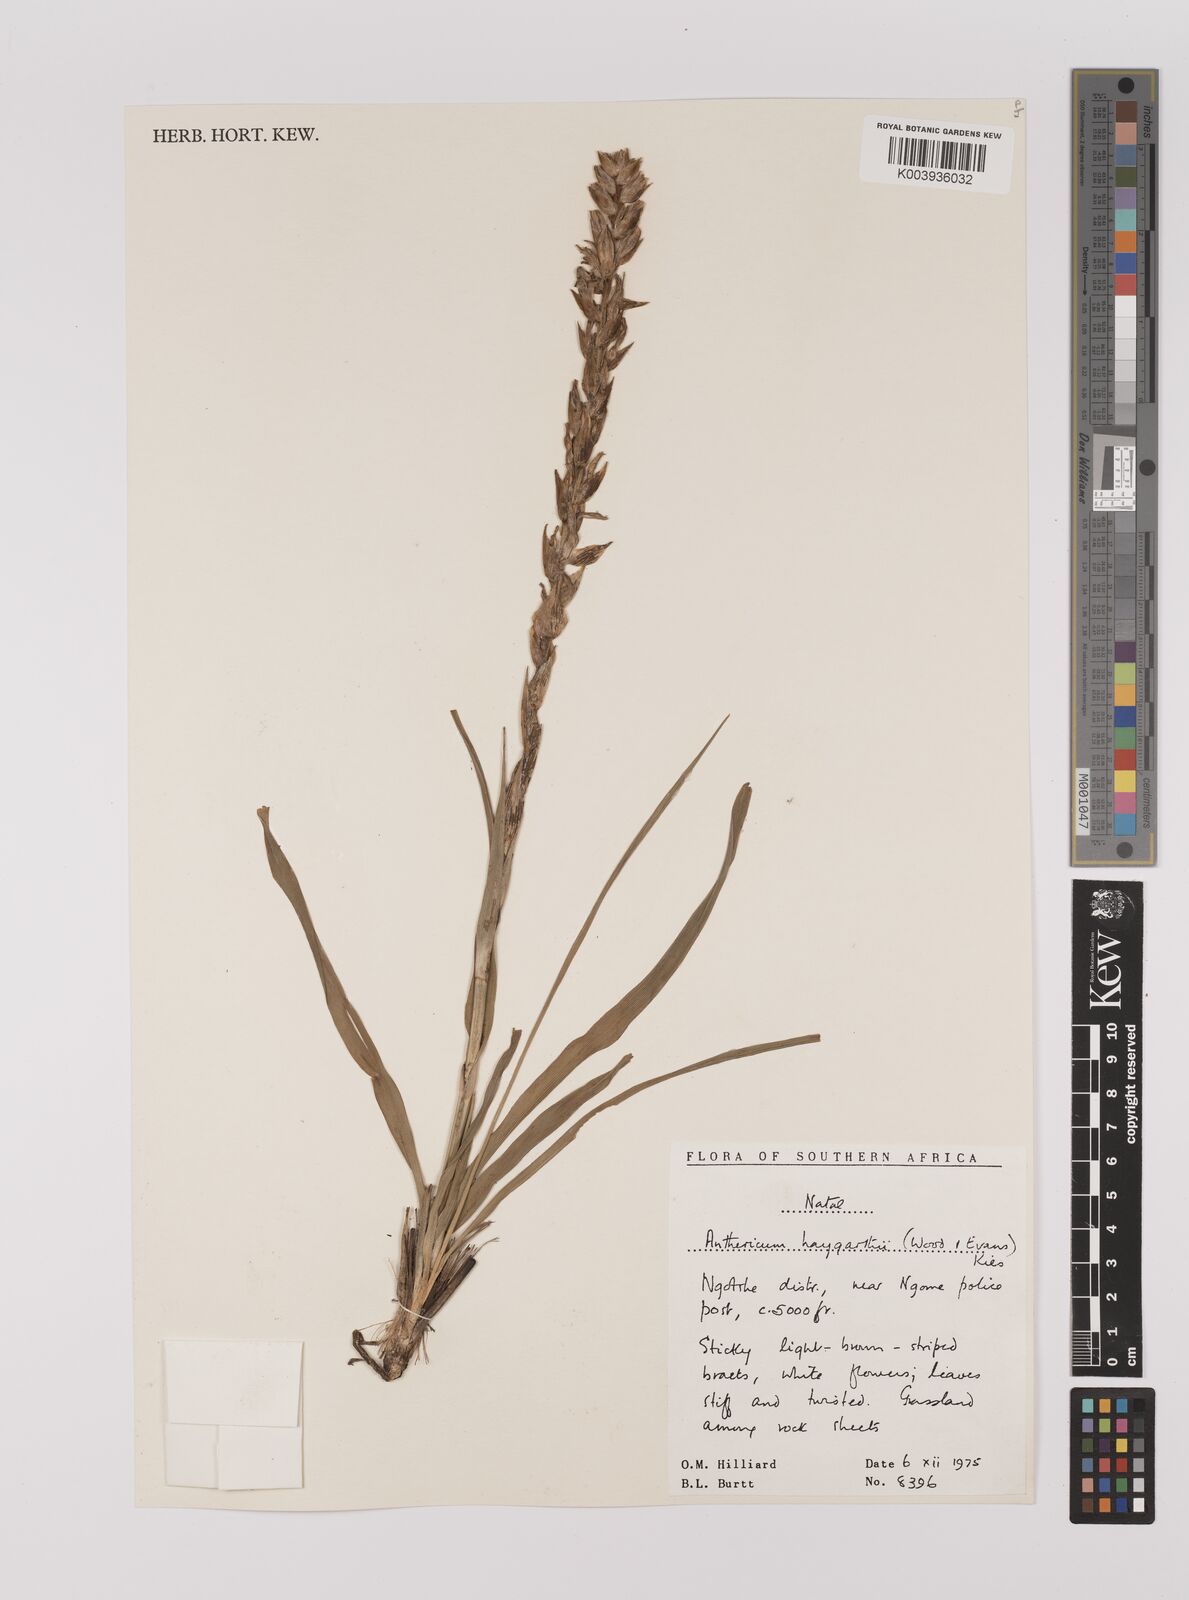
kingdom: Plantae
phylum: Tracheophyta
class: Liliopsida
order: Asparagales
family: Asparagaceae
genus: Chlorophytum
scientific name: Chlorophytum haygarthii
